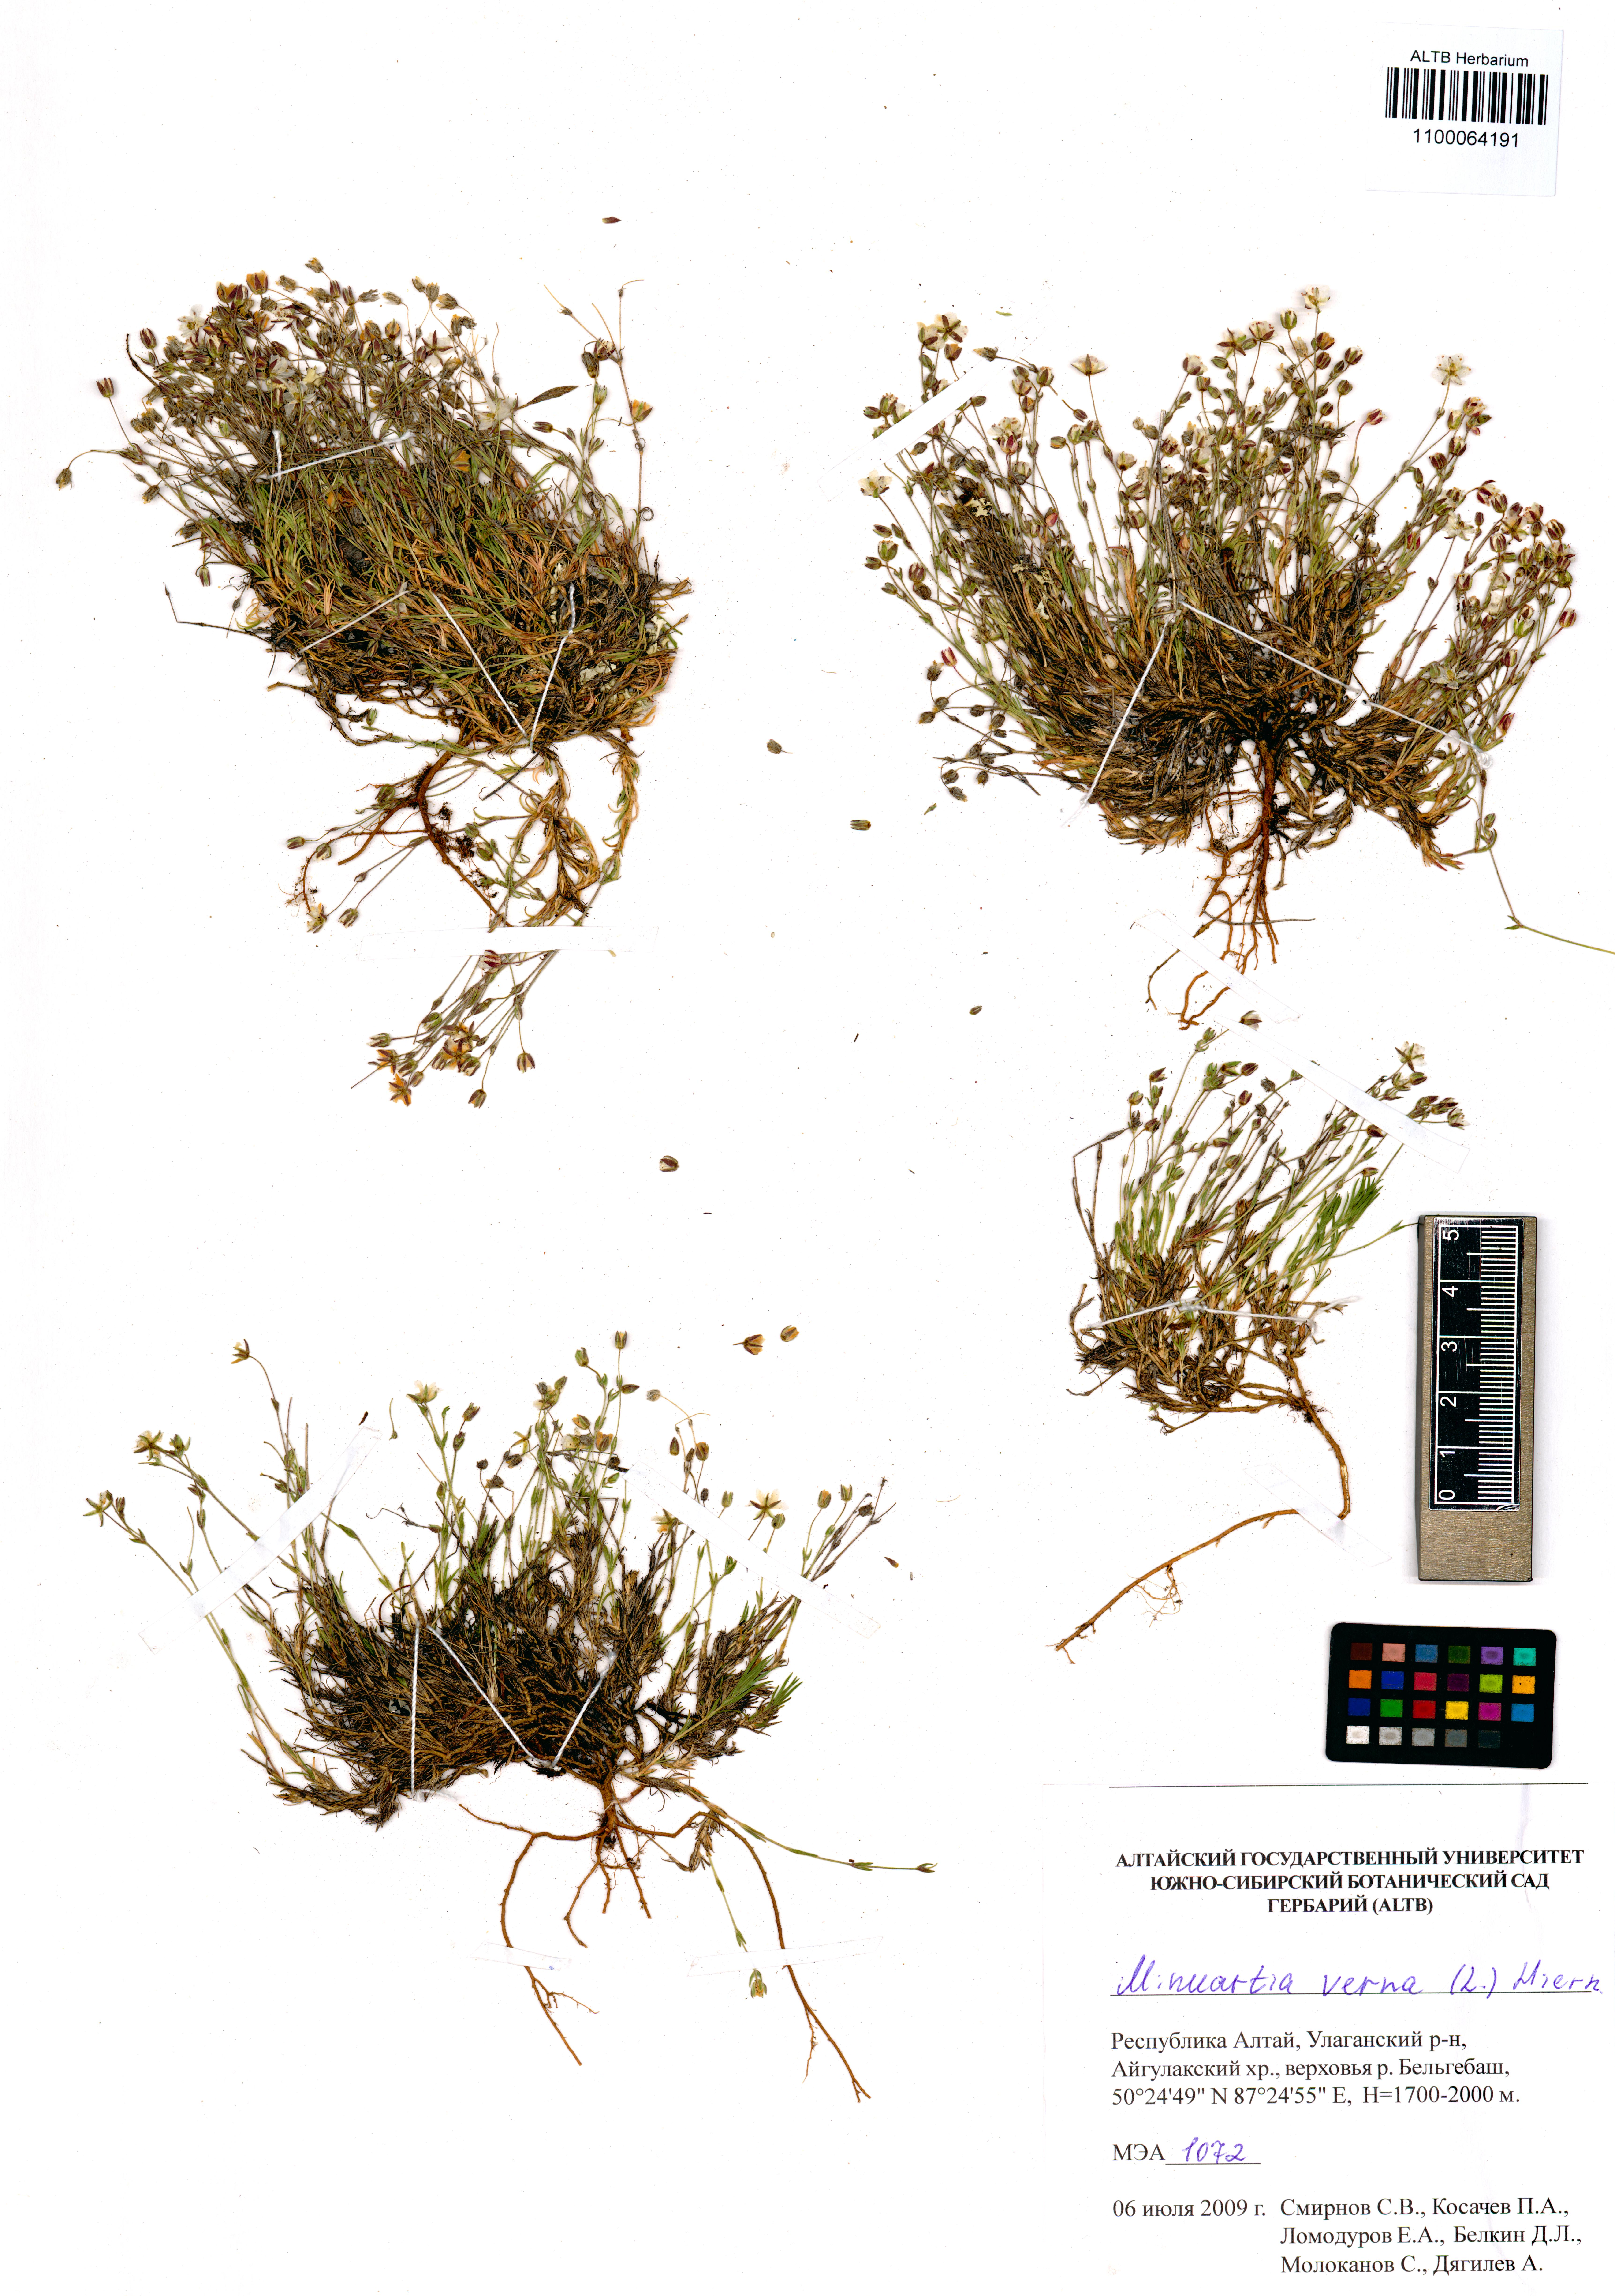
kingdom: Plantae
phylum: Tracheophyta
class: Magnoliopsida
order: Caryophyllales
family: Caryophyllaceae
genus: Sabulina
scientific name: Sabulina verna
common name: Spring sandwort
